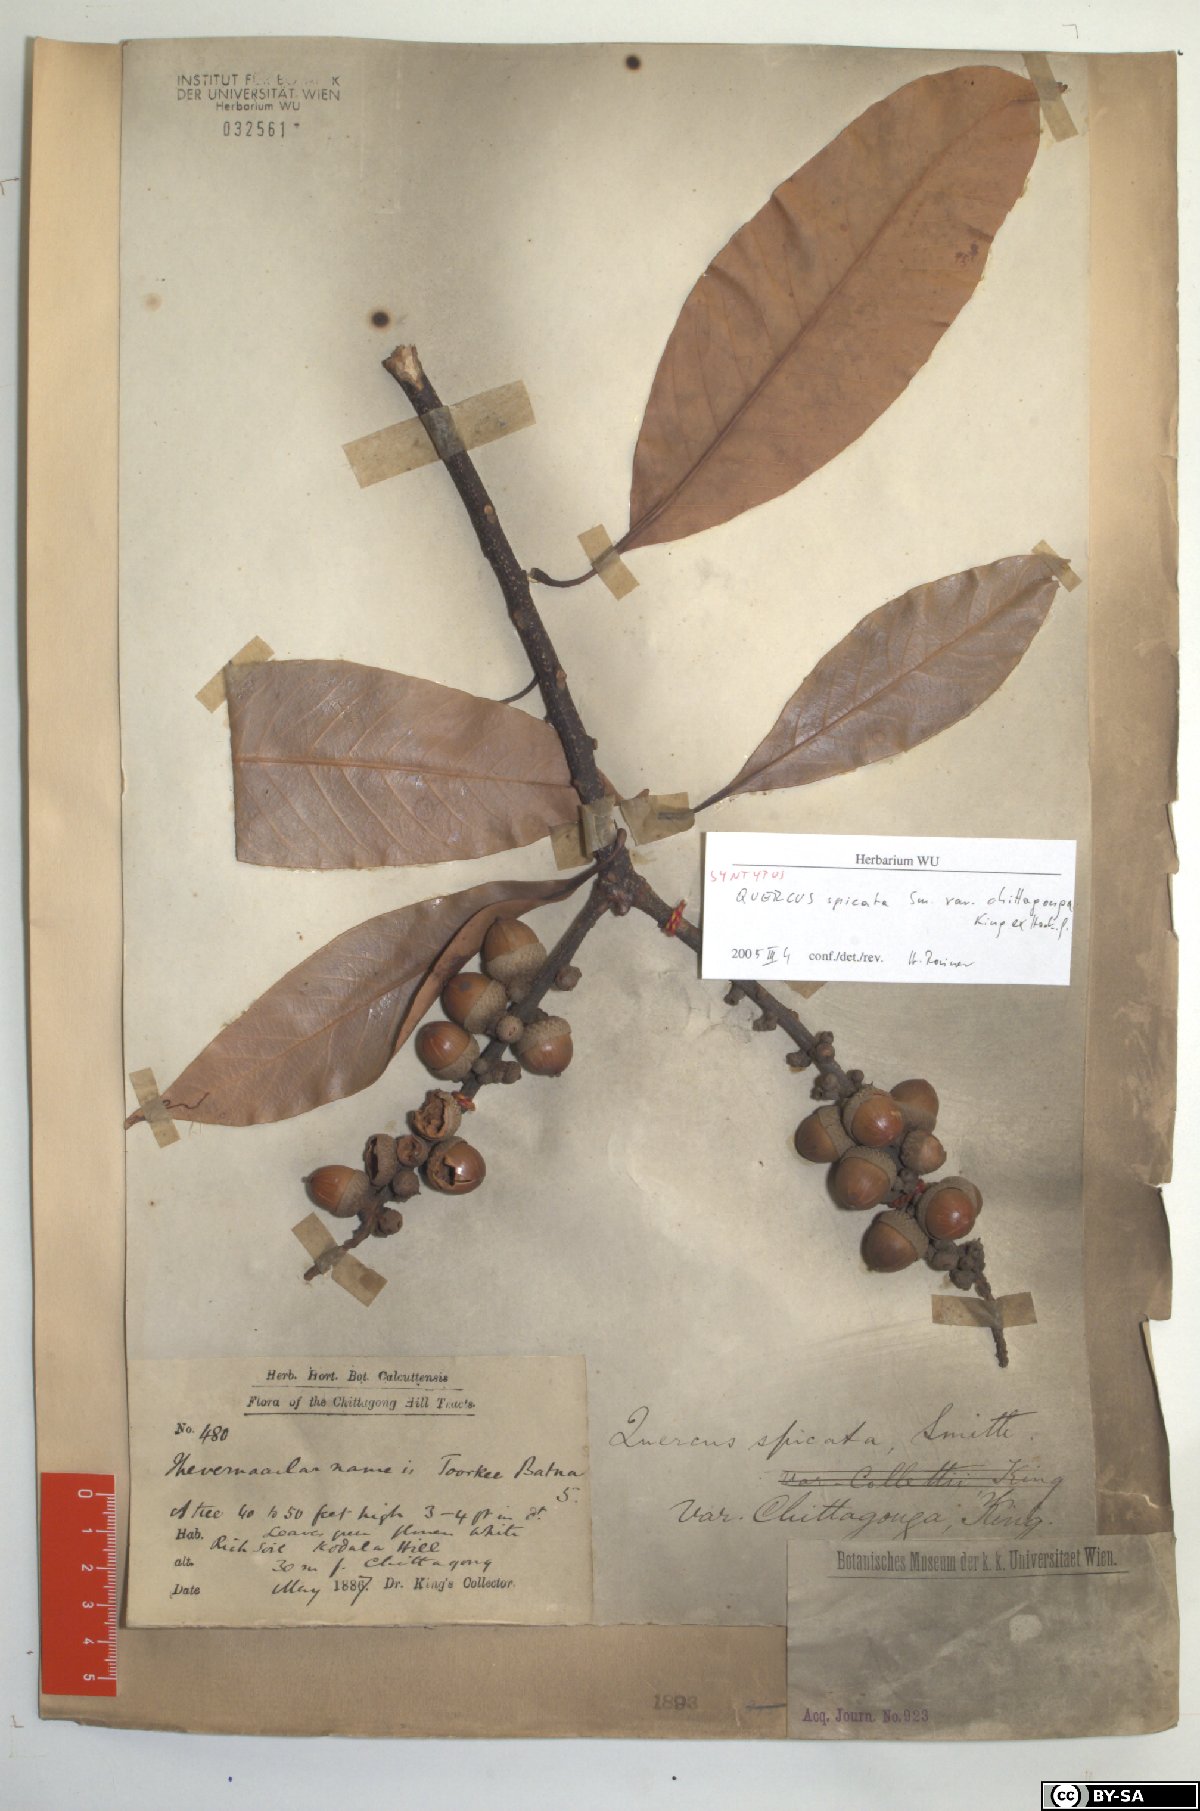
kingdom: Plantae
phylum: Tracheophyta
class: Magnoliopsida
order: Fagales
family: Fagaceae
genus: Lithocarpus
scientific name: Lithocarpus chittagongus
